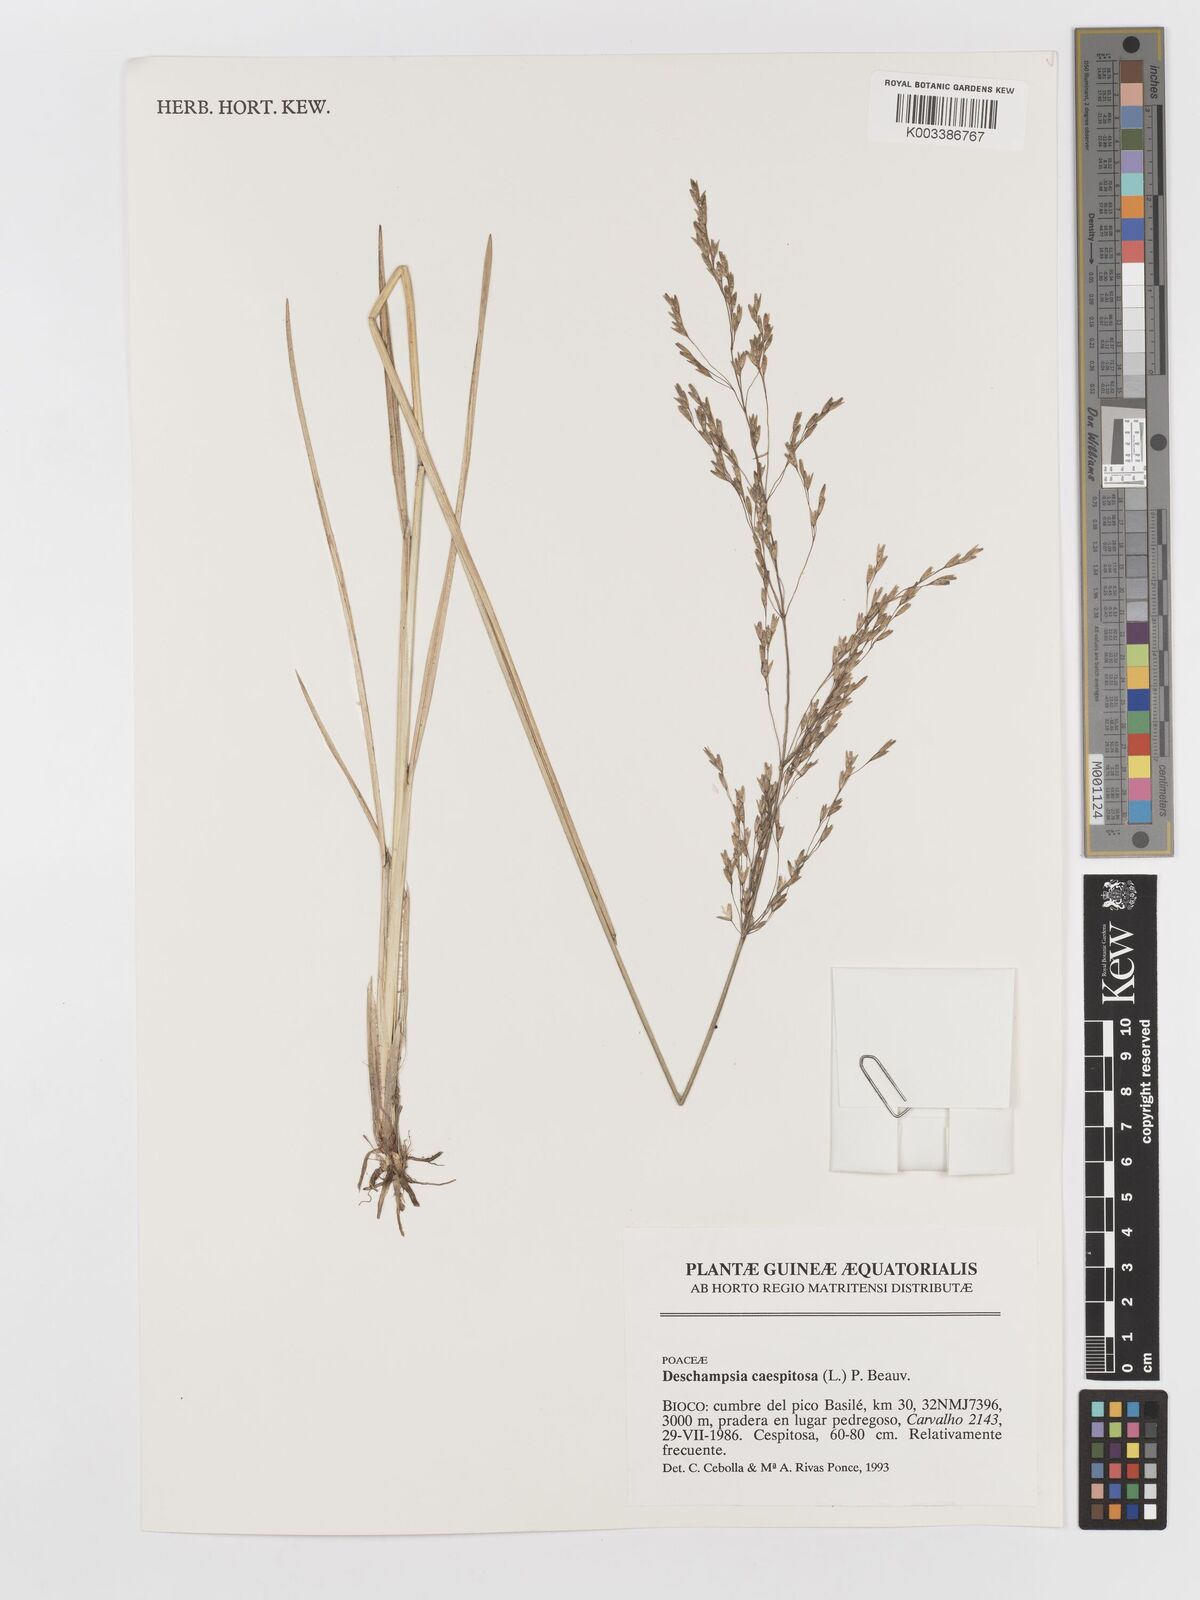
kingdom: Plantae
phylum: Tracheophyta
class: Liliopsida
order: Poales
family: Poaceae
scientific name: Poaceae
